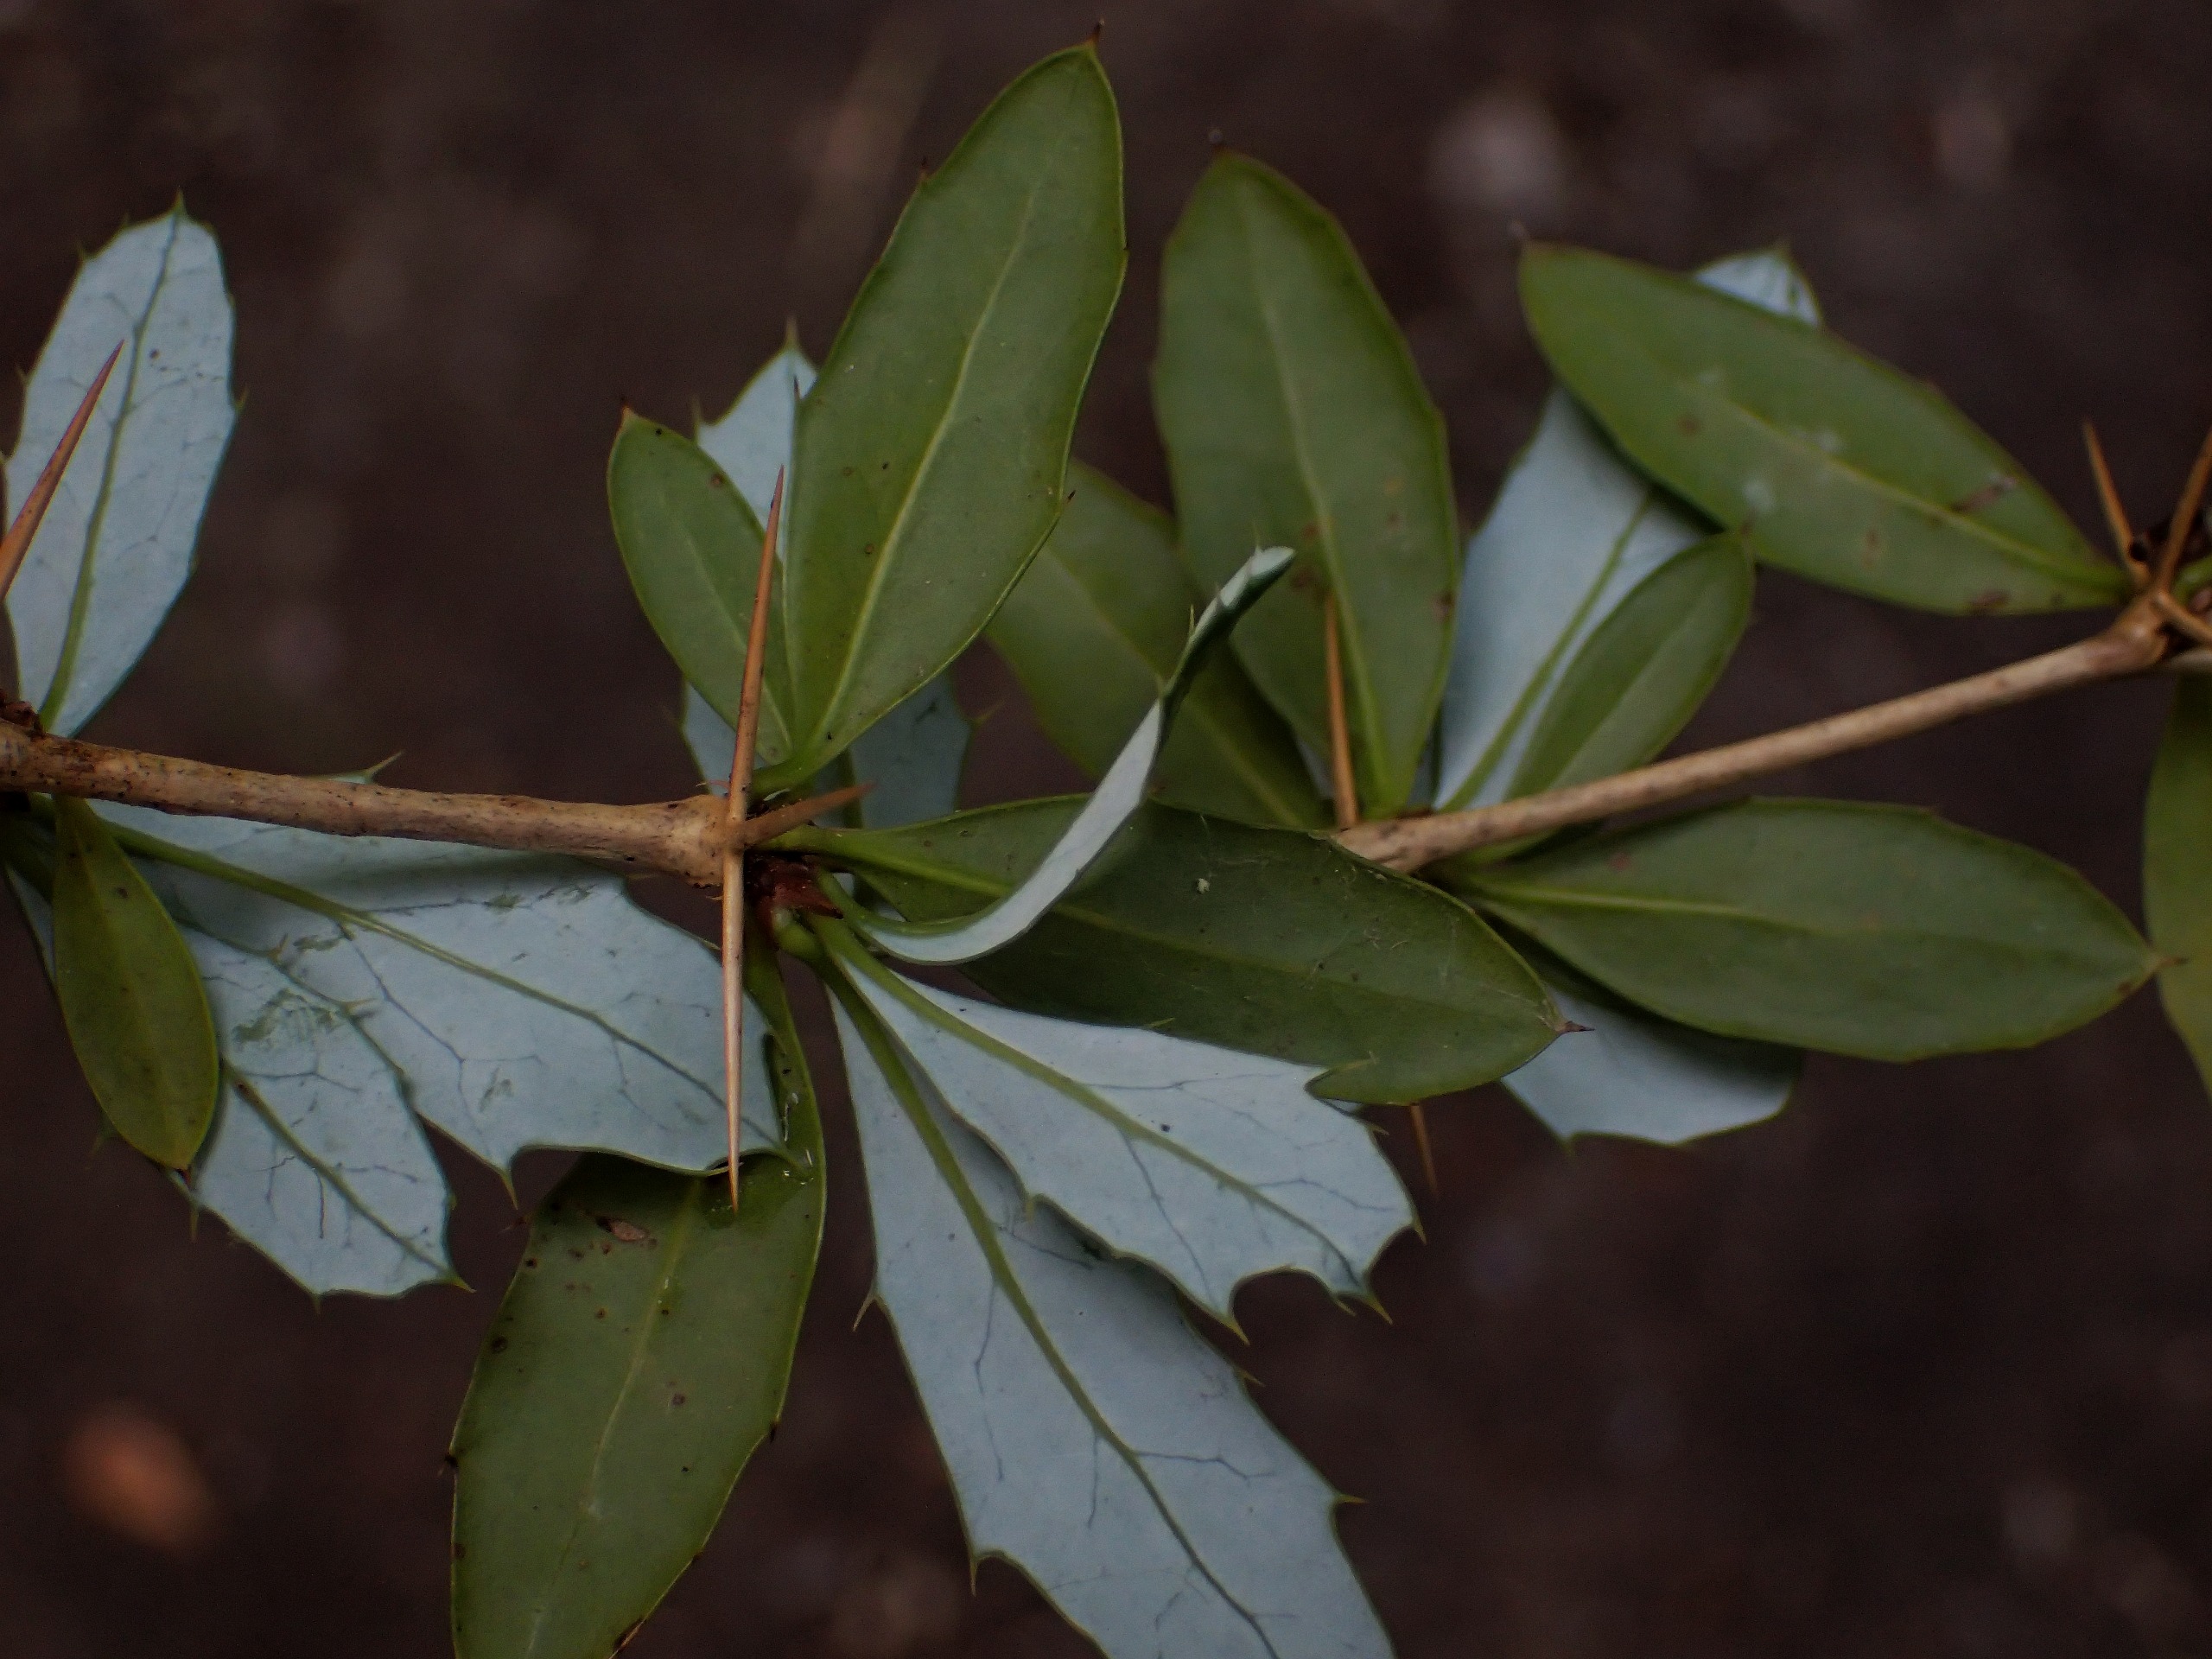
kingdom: Plantae
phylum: Tracheophyta
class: Magnoliopsida
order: Ranunculales
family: Berberidaceae
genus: Berberis
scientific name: Berberis candidula
